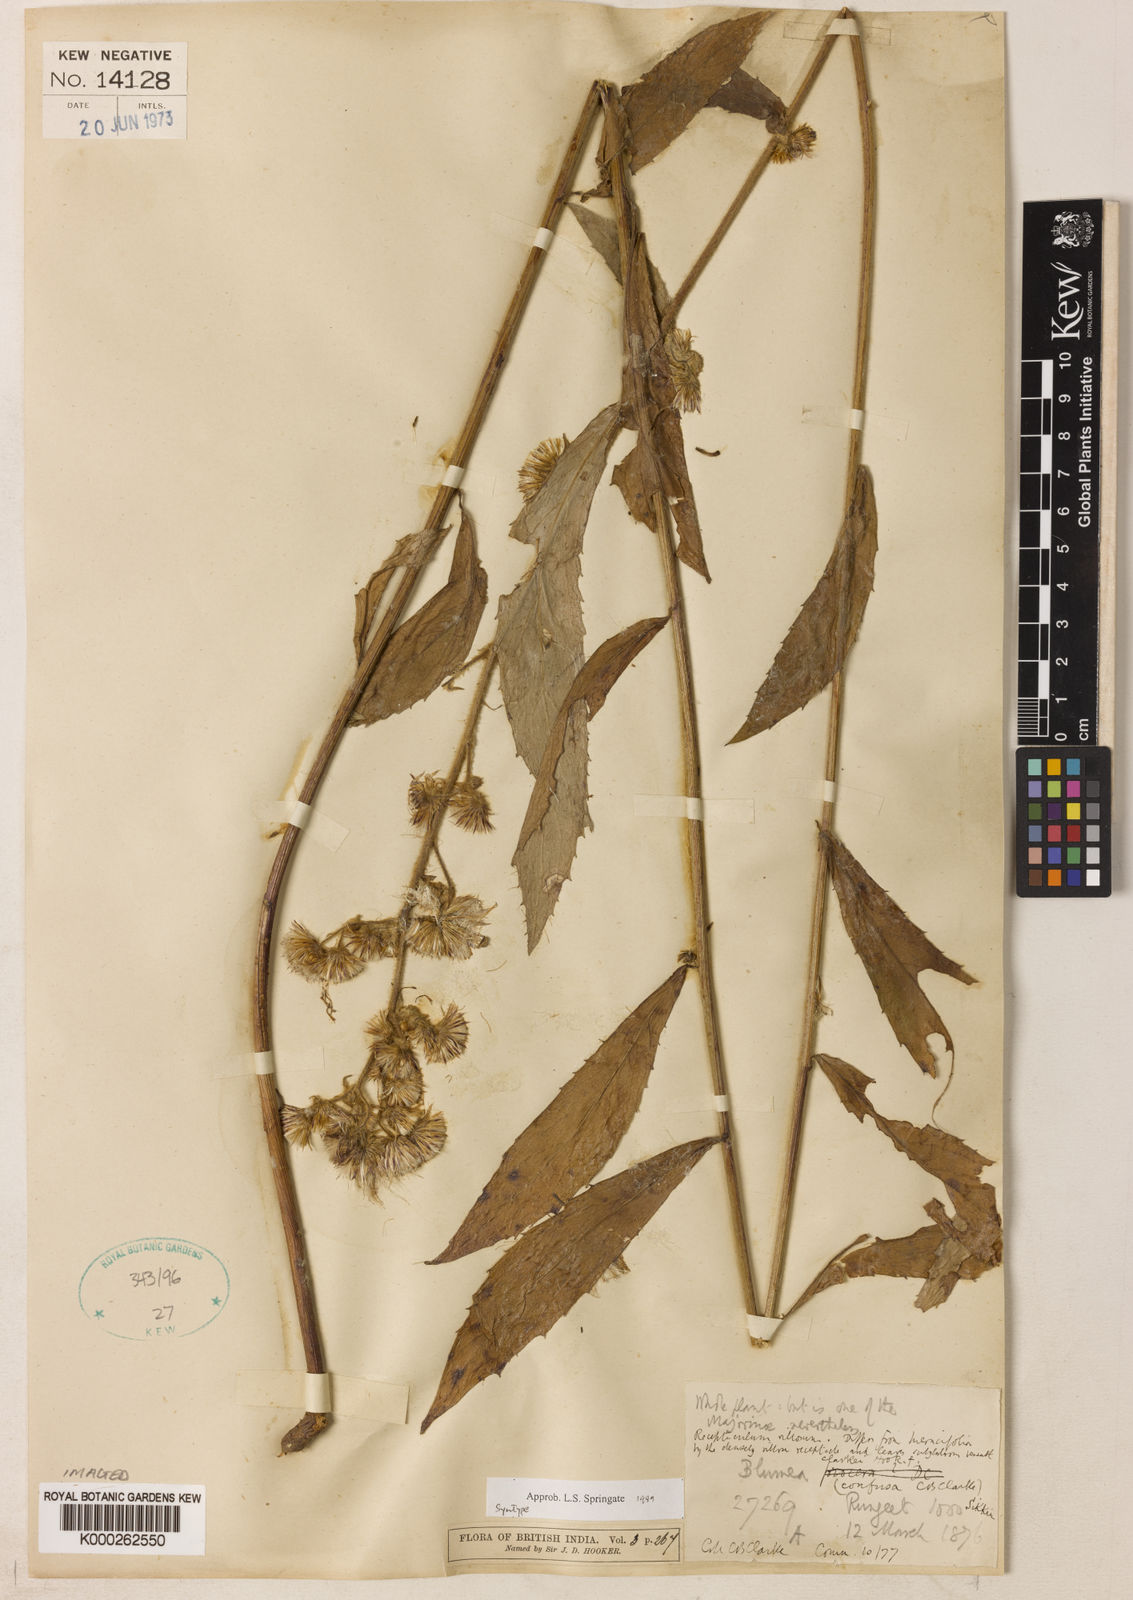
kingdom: Plantae
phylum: Tracheophyta
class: Magnoliopsida
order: Asterales
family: Asteraceae
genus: Blumea
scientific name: Blumea hirsuta
